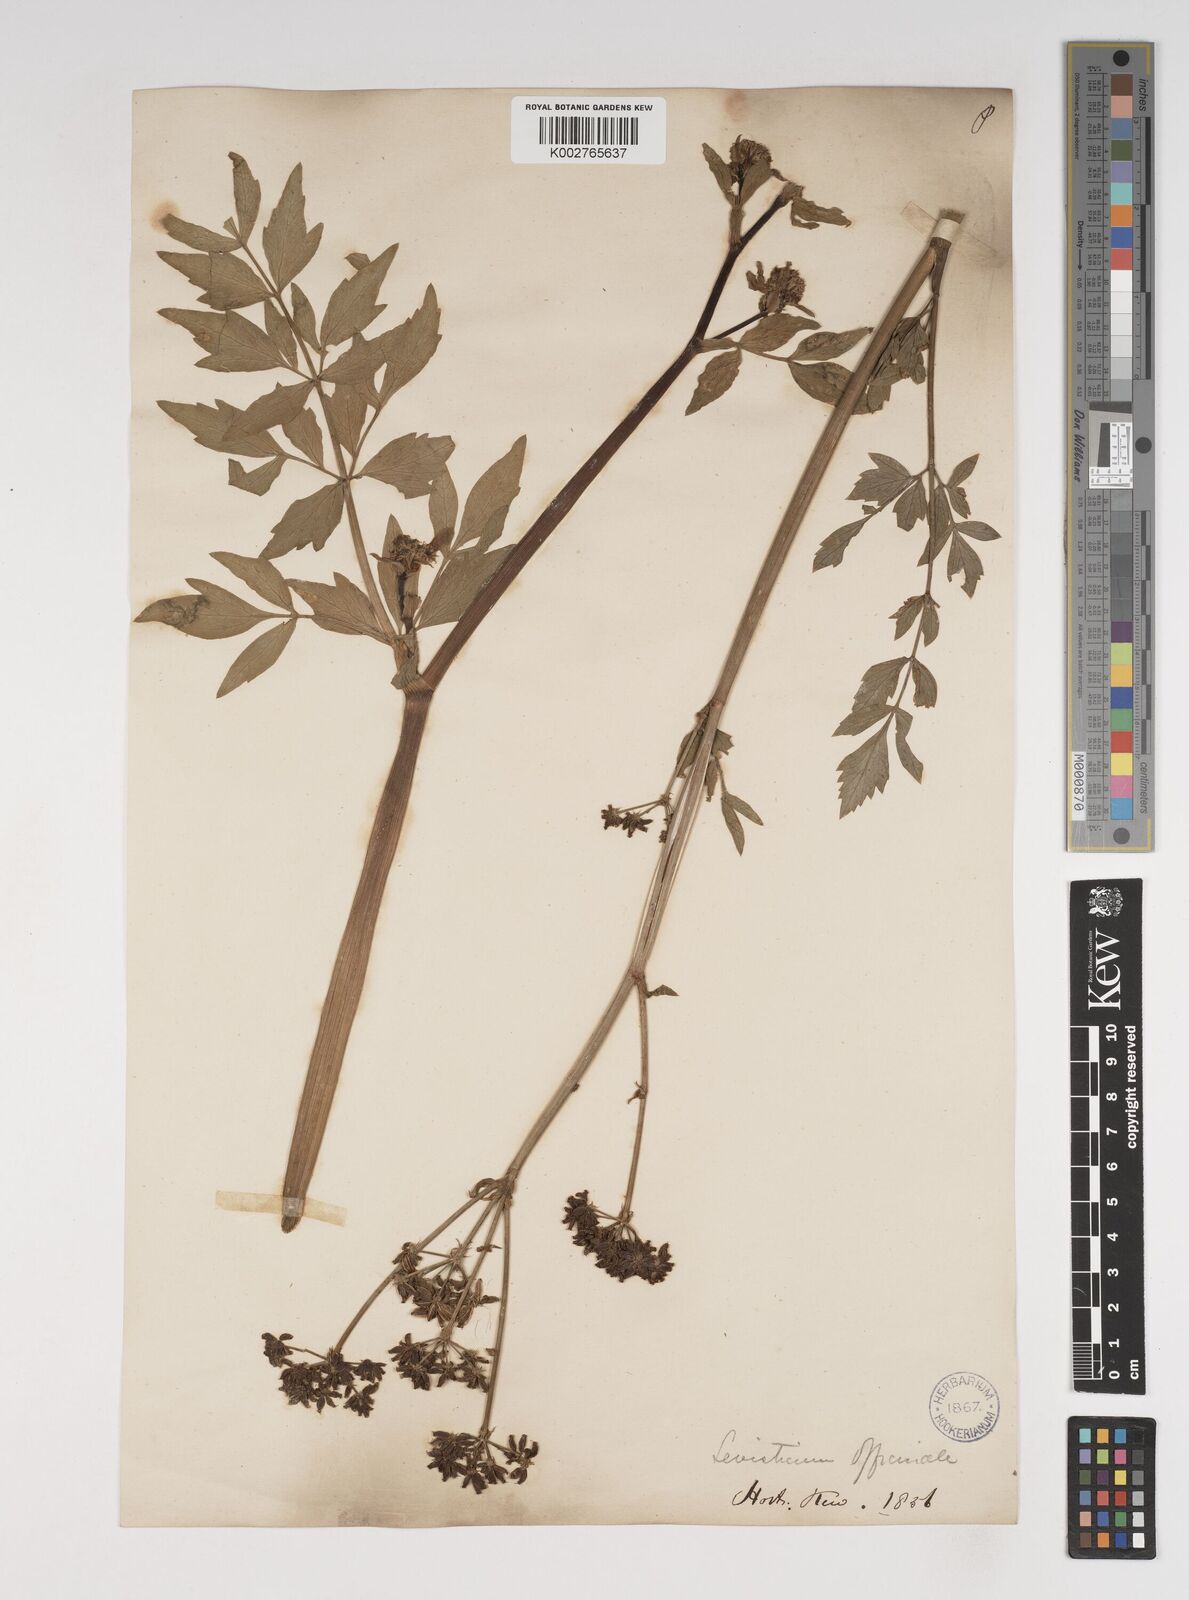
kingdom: Plantae
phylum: Tracheophyta
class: Magnoliopsida
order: Apiales
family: Apiaceae
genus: Levisticum
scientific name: Levisticum officinale
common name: Lovage
